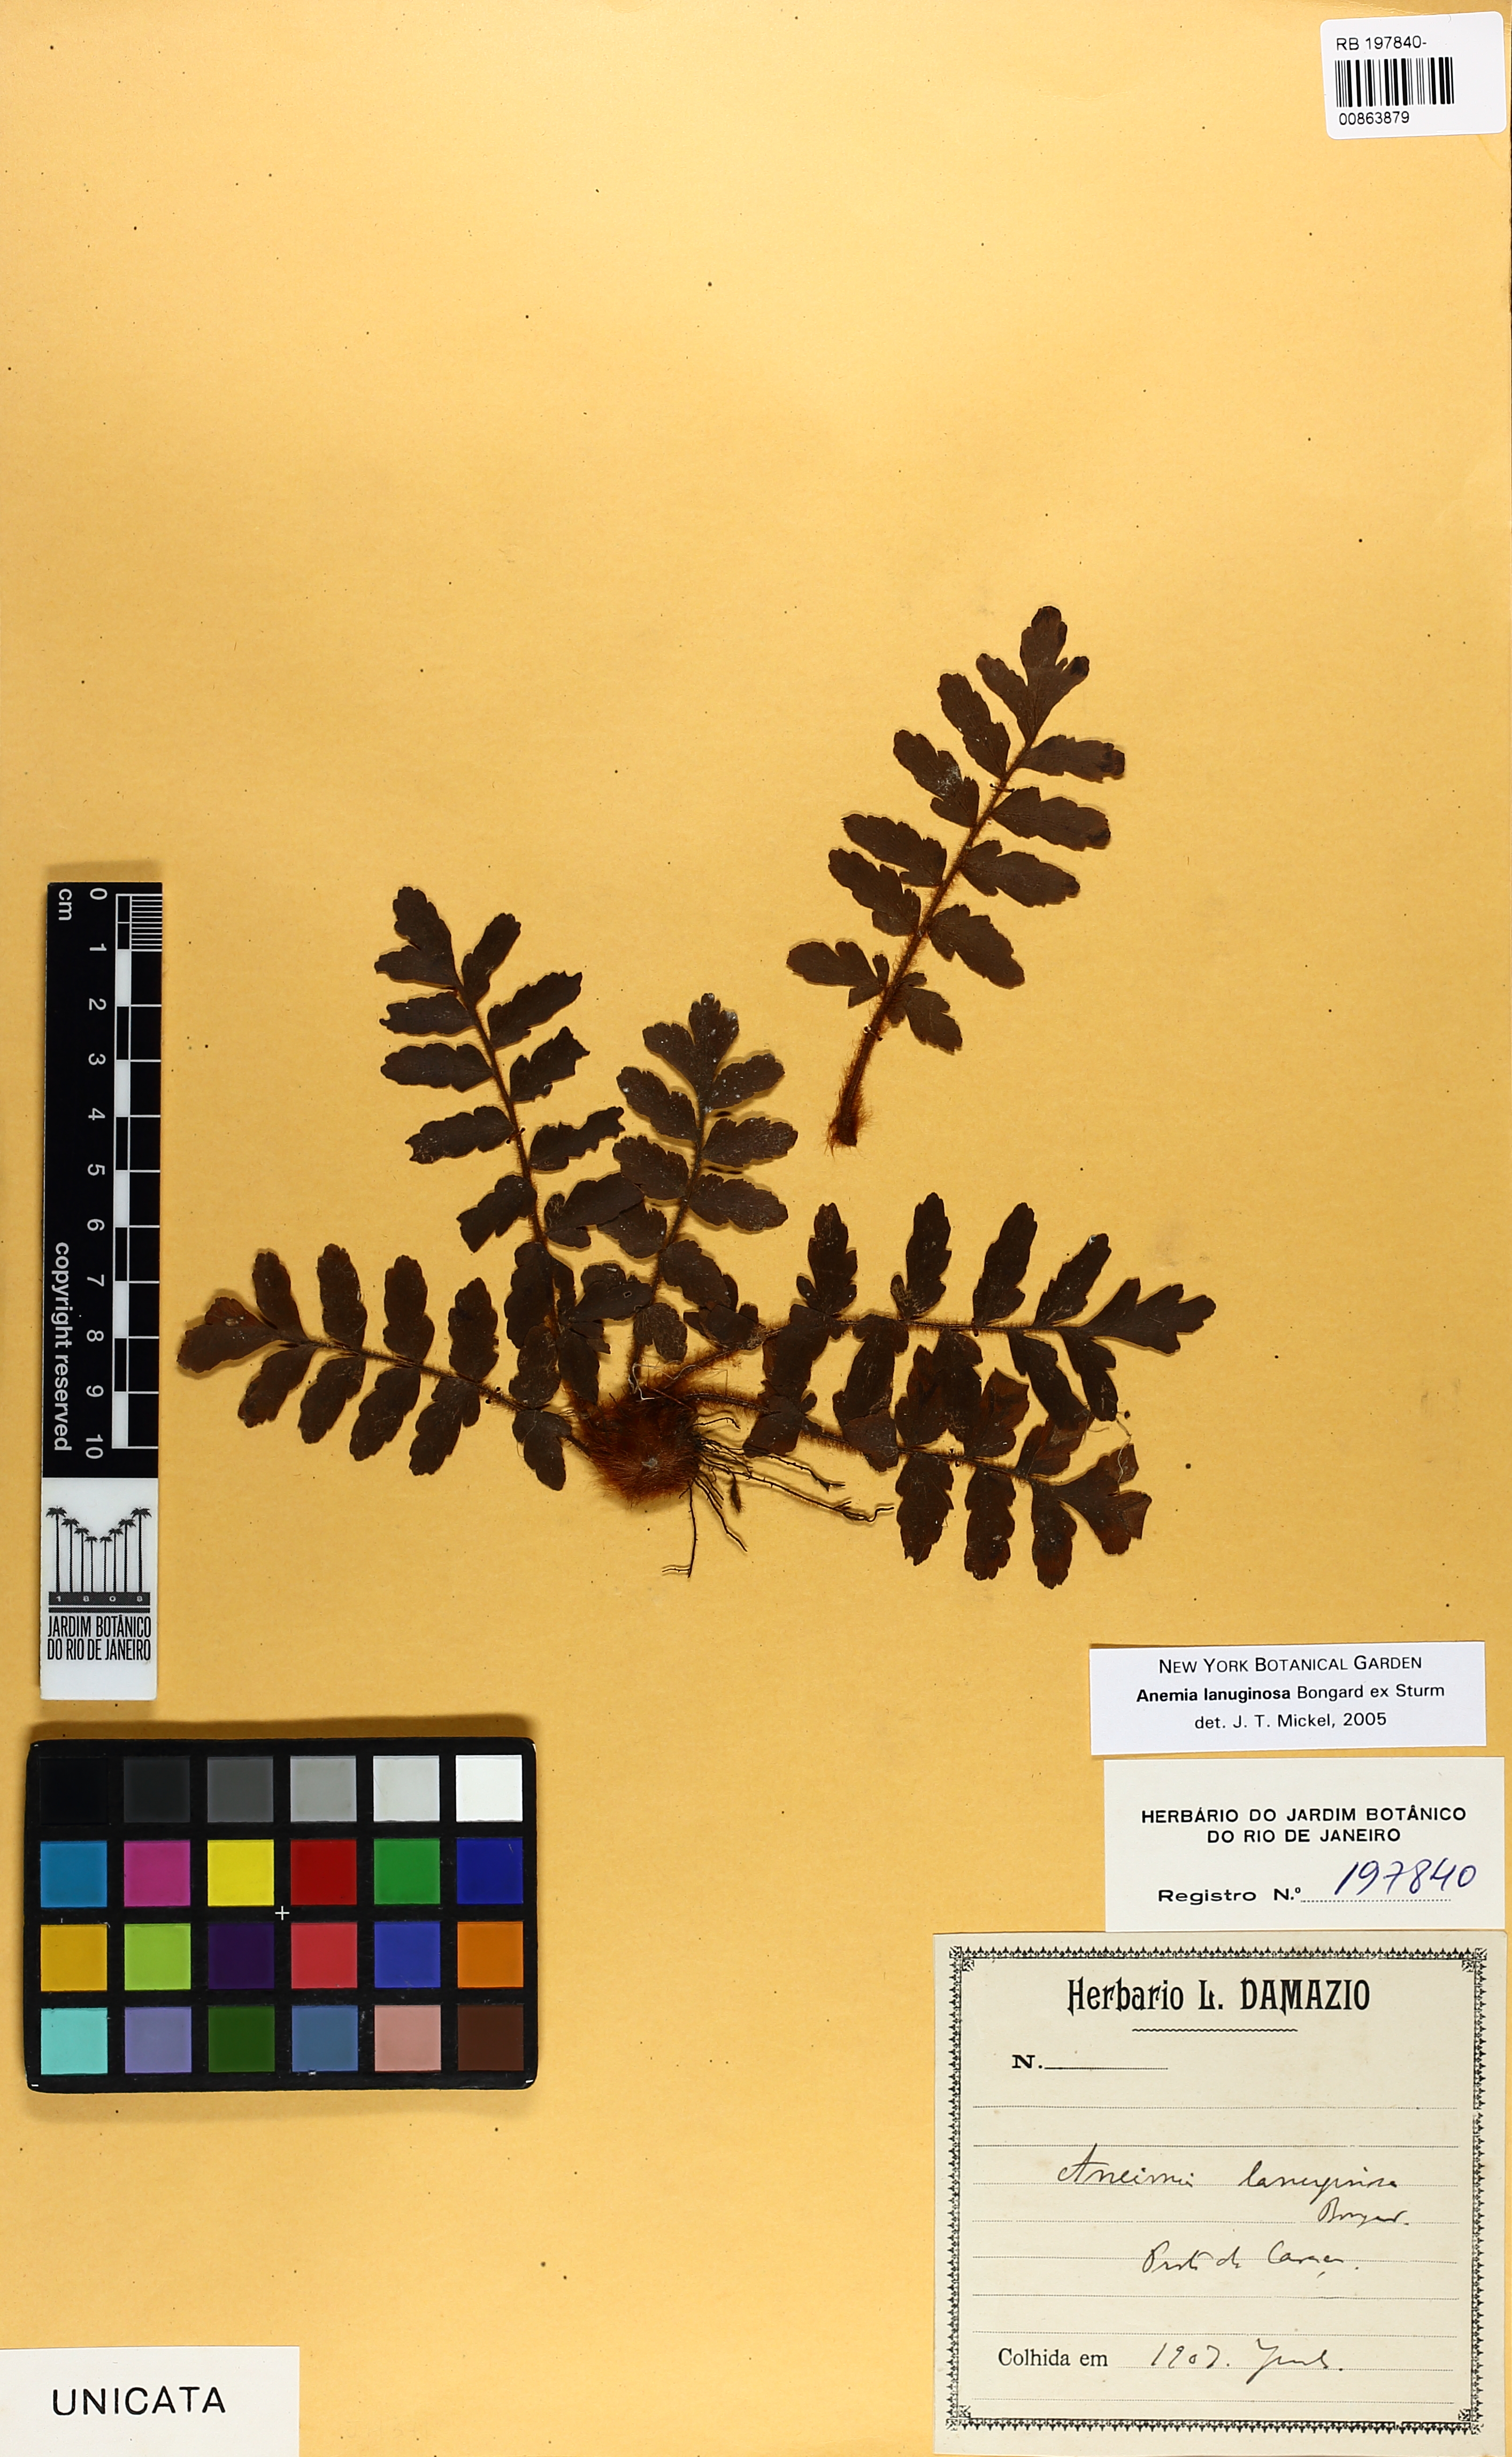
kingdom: Plantae
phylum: Tracheophyta
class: Polypodiopsida
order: Schizaeales
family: Anemiaceae
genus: Anemia
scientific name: Anemia lanuginosa
